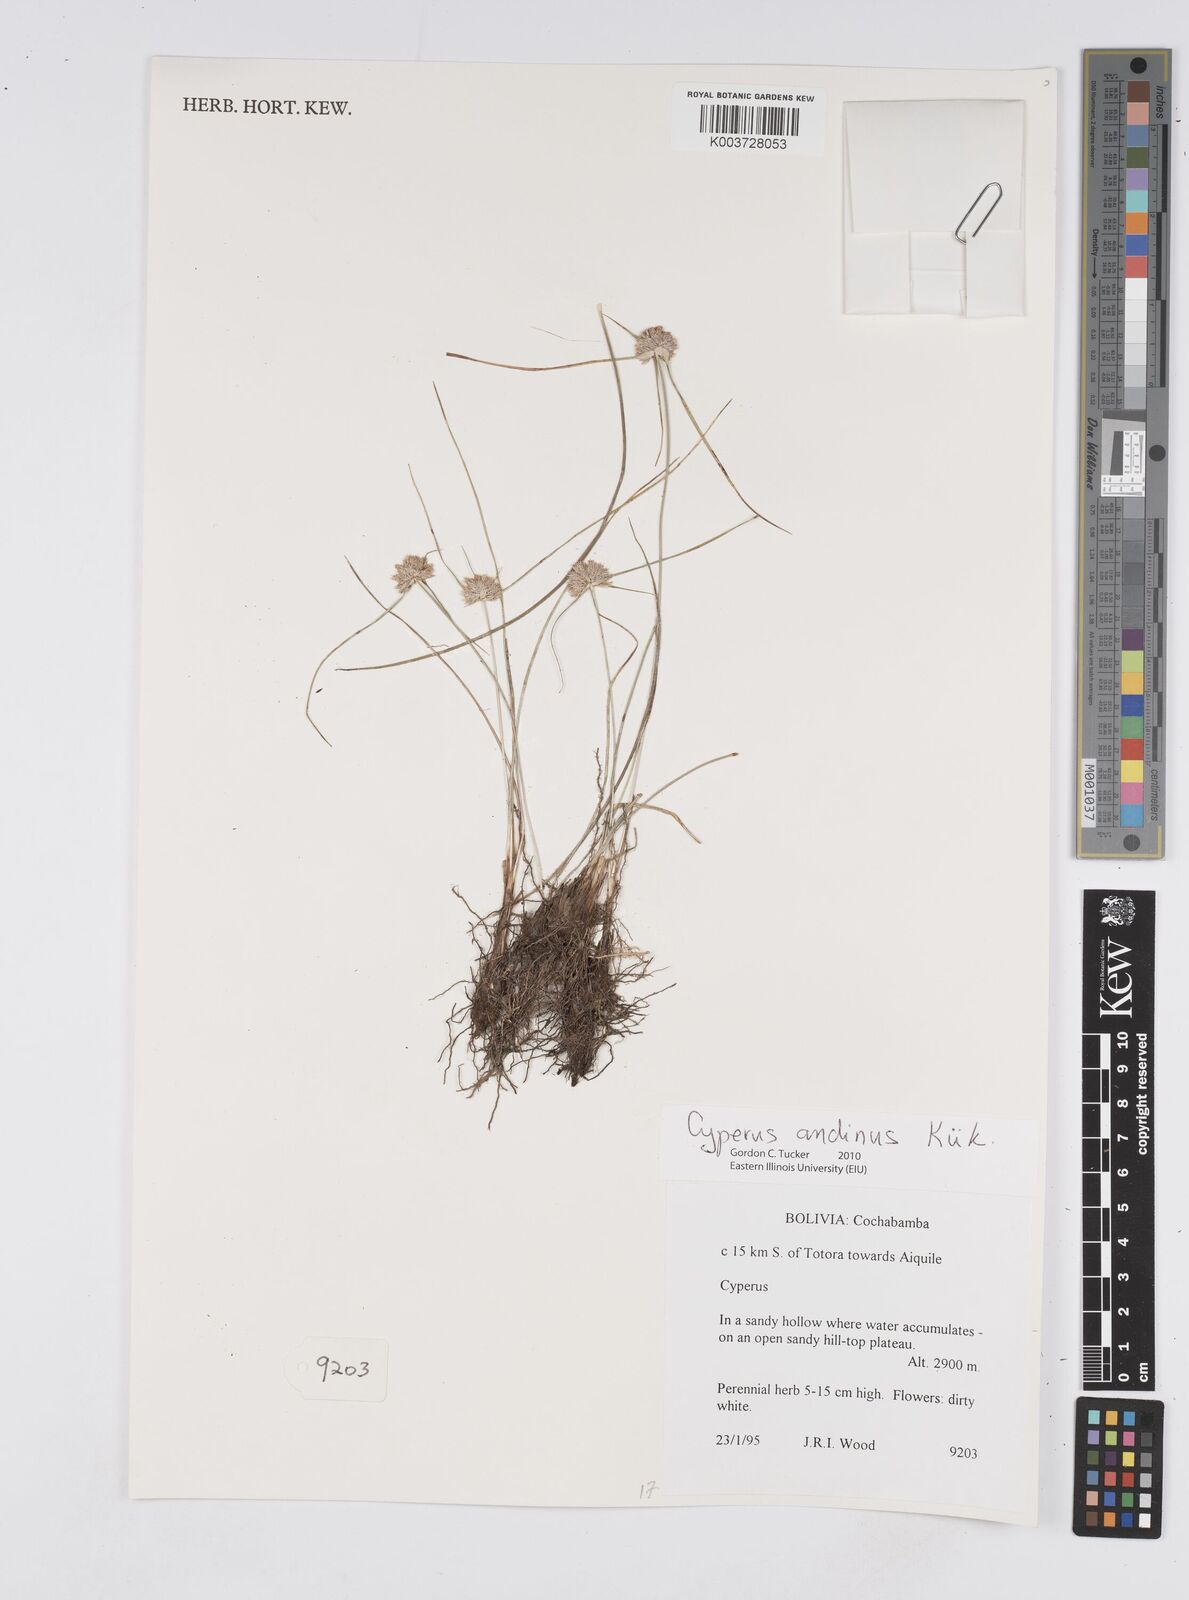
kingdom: Plantae
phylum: Tracheophyta
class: Liliopsida
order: Poales
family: Cyperaceae
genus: Cyperus
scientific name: Cyperus seslerioides
